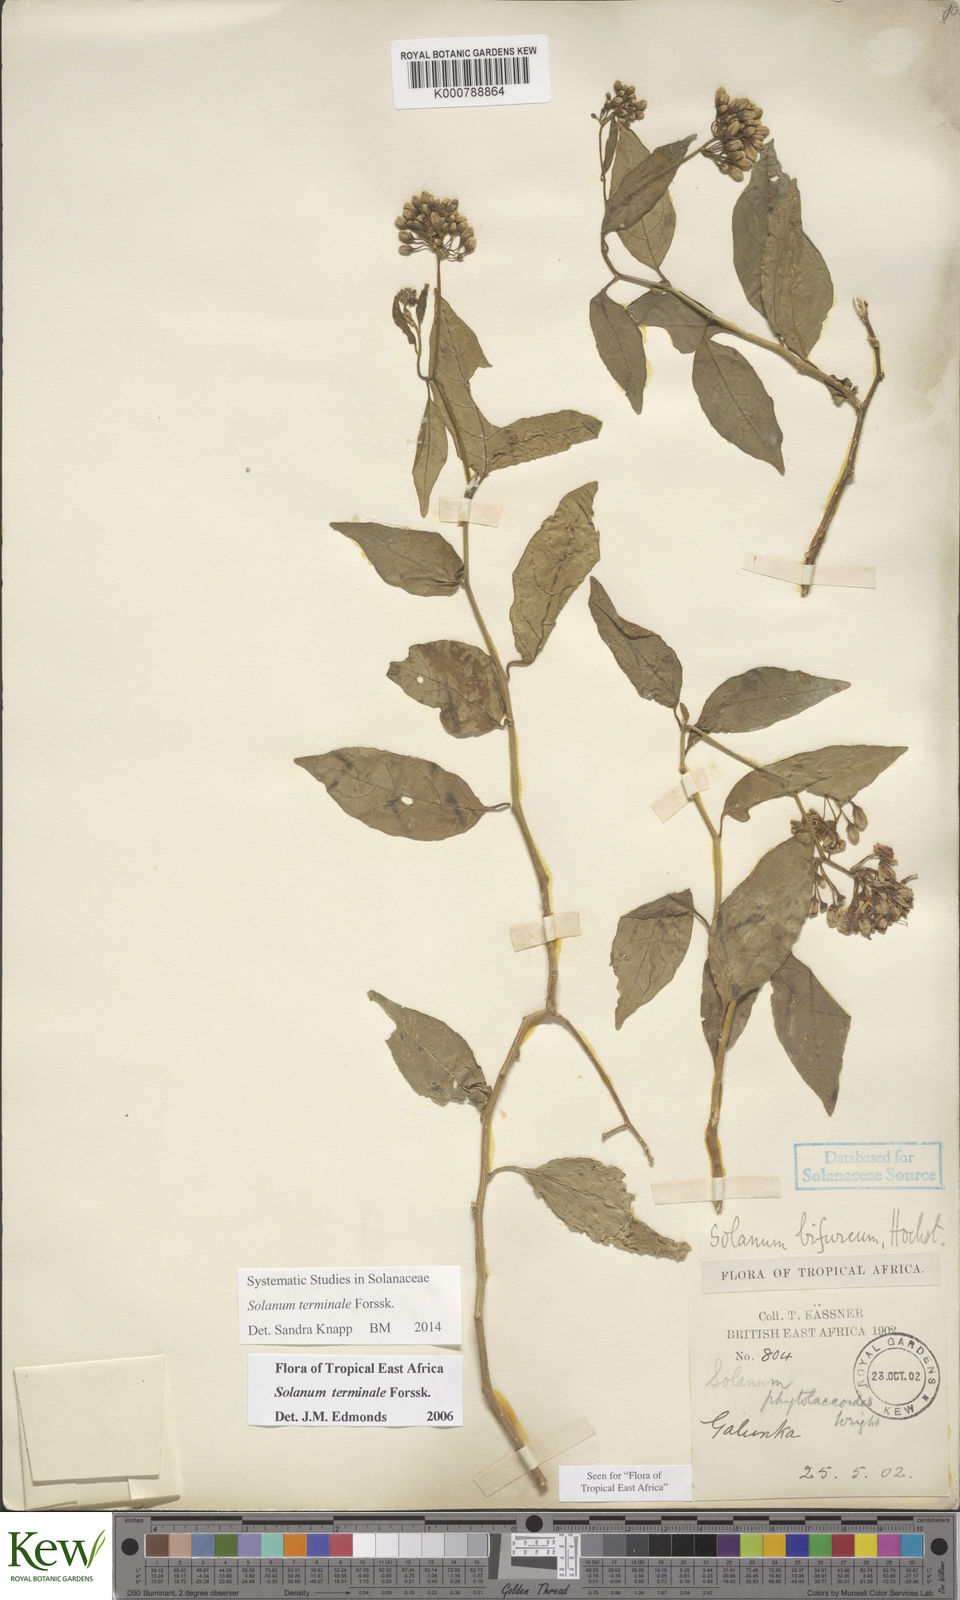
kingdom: Plantae
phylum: Tracheophyta
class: Magnoliopsida
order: Solanales
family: Solanaceae
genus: Solanum
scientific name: Solanum terminale
